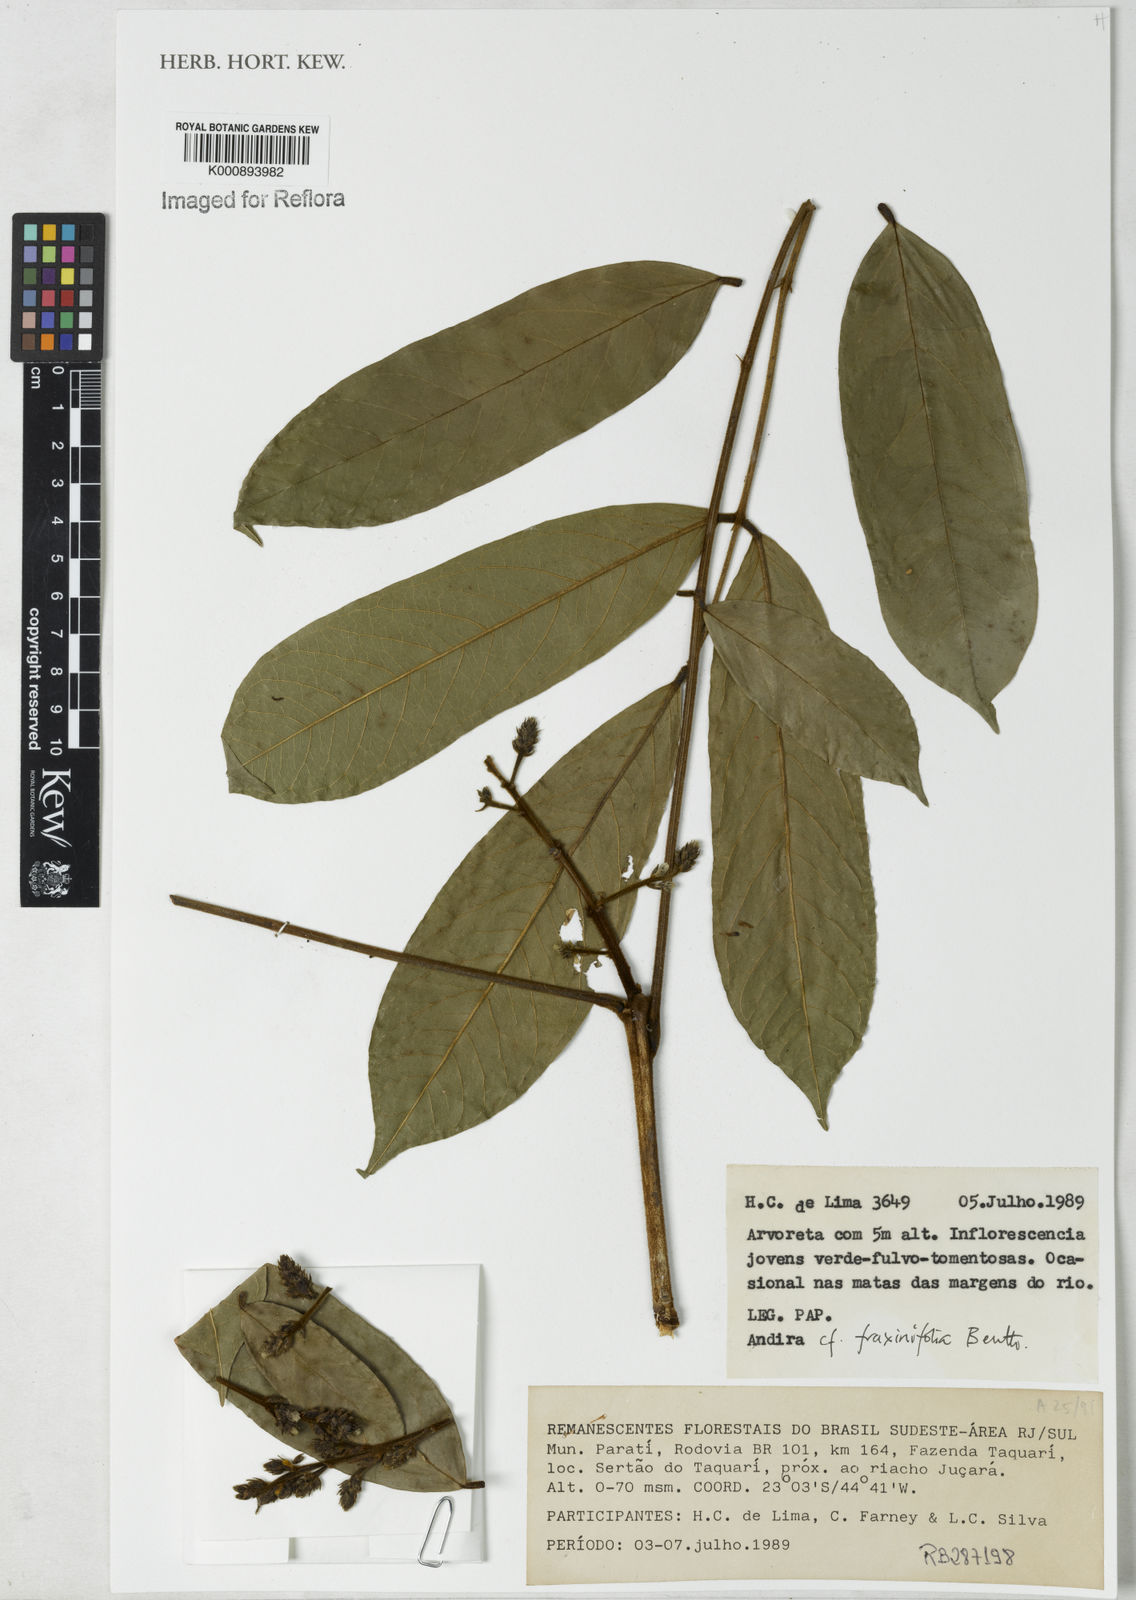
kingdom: Plantae
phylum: Tracheophyta
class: Magnoliopsida
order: Fabales
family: Fabaceae
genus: Andira
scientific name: Andira fraxinifolia
